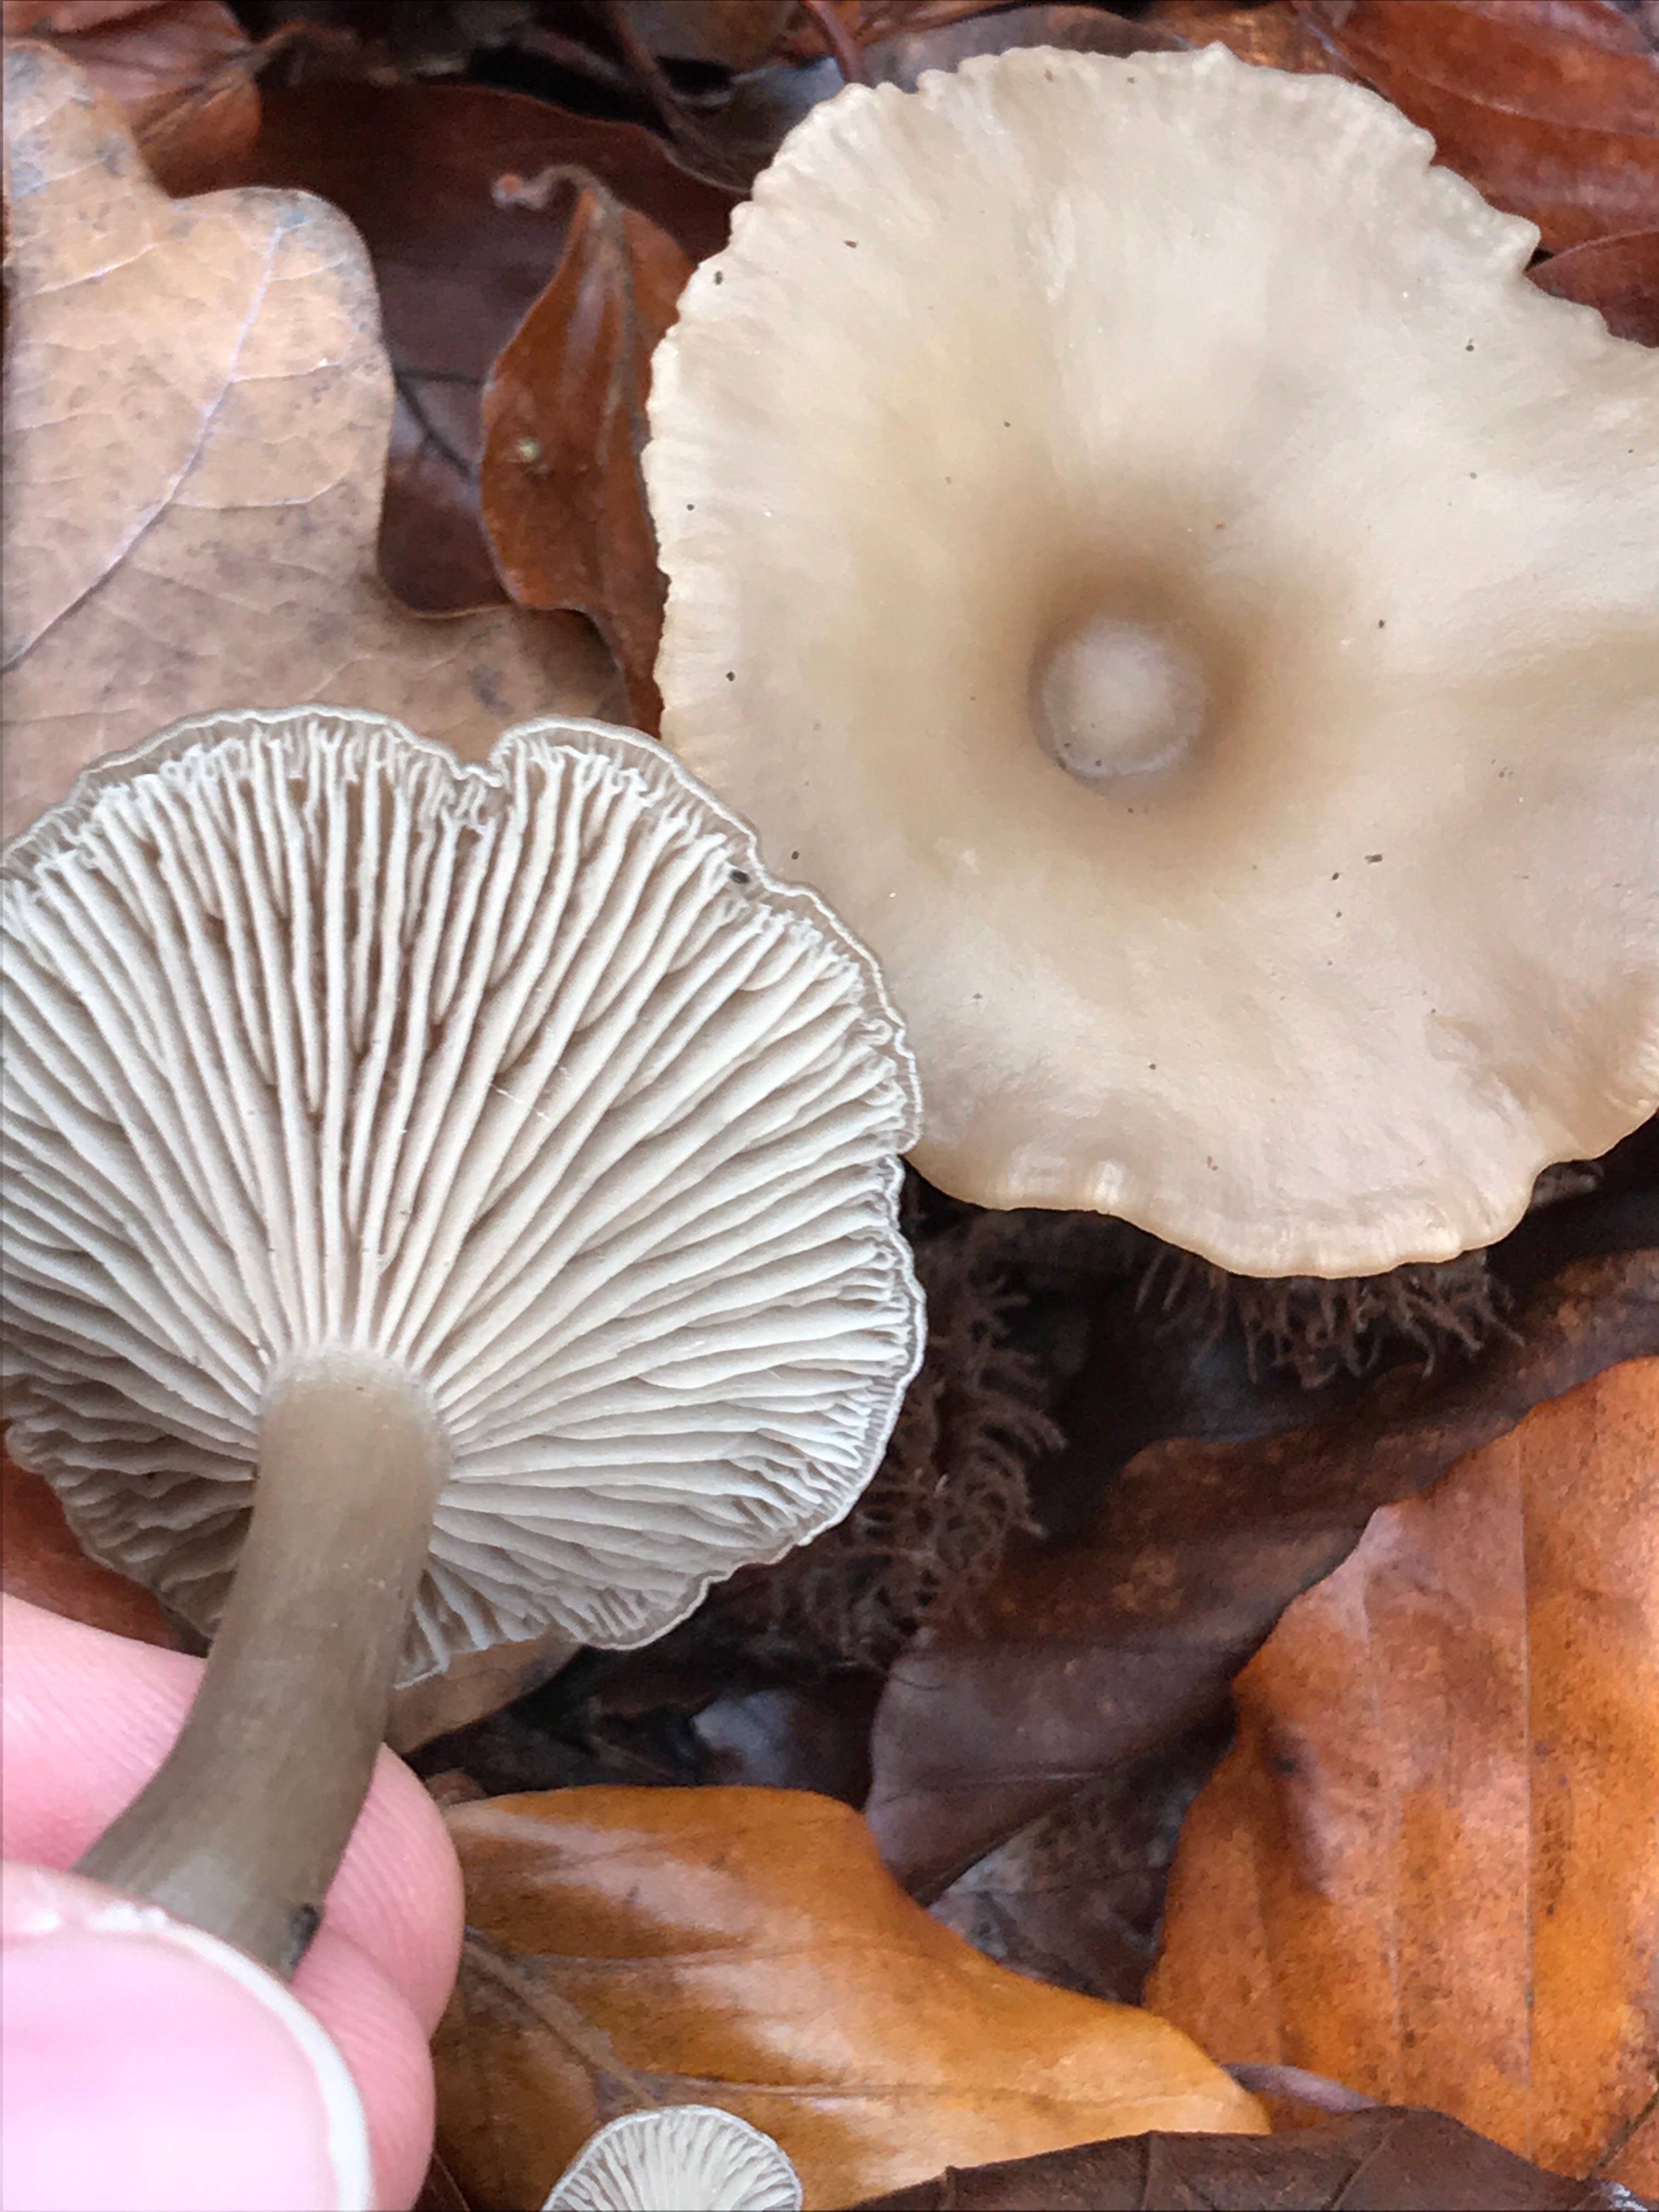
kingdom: Fungi
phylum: Basidiomycota
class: Agaricomycetes
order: Agaricales
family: Tricholomataceae
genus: Clitocybe
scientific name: Clitocybe
